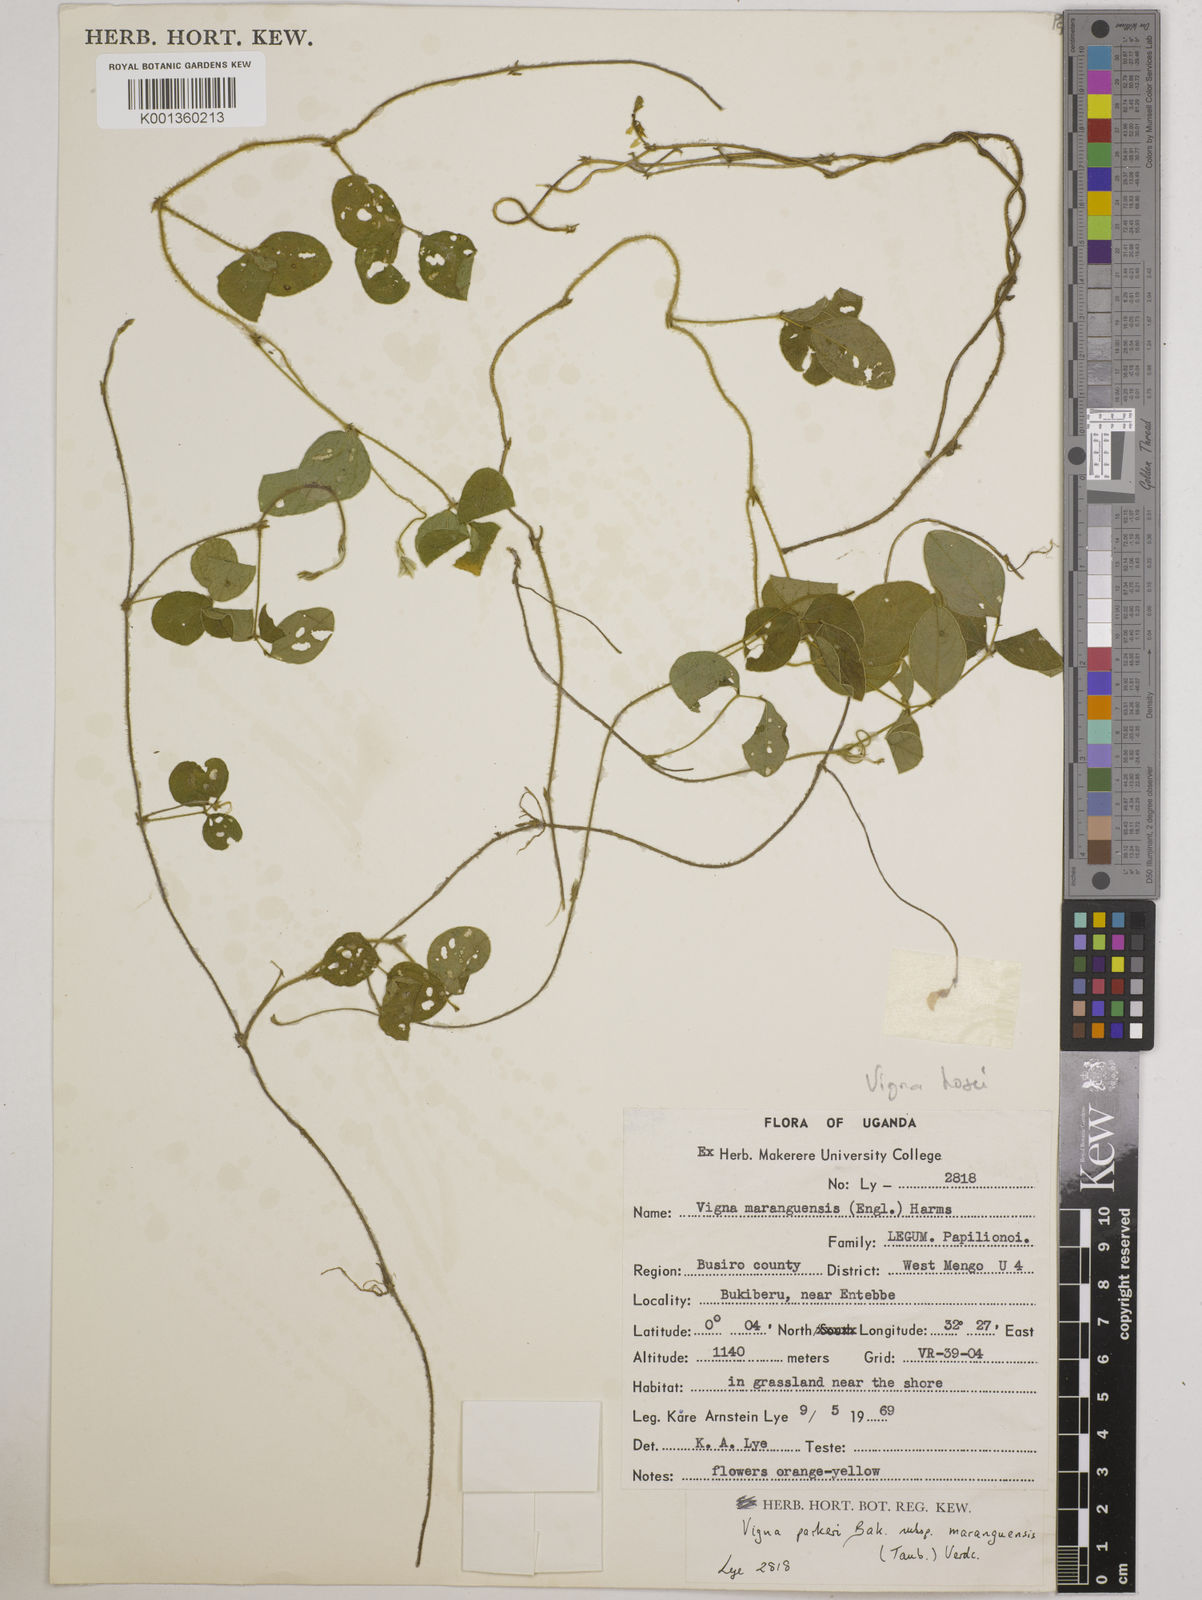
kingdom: Plantae
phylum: Tracheophyta
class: Magnoliopsida
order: Fabales
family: Fabaceae
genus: Vigna
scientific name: Vigna hosei
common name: Sarawak-bean
